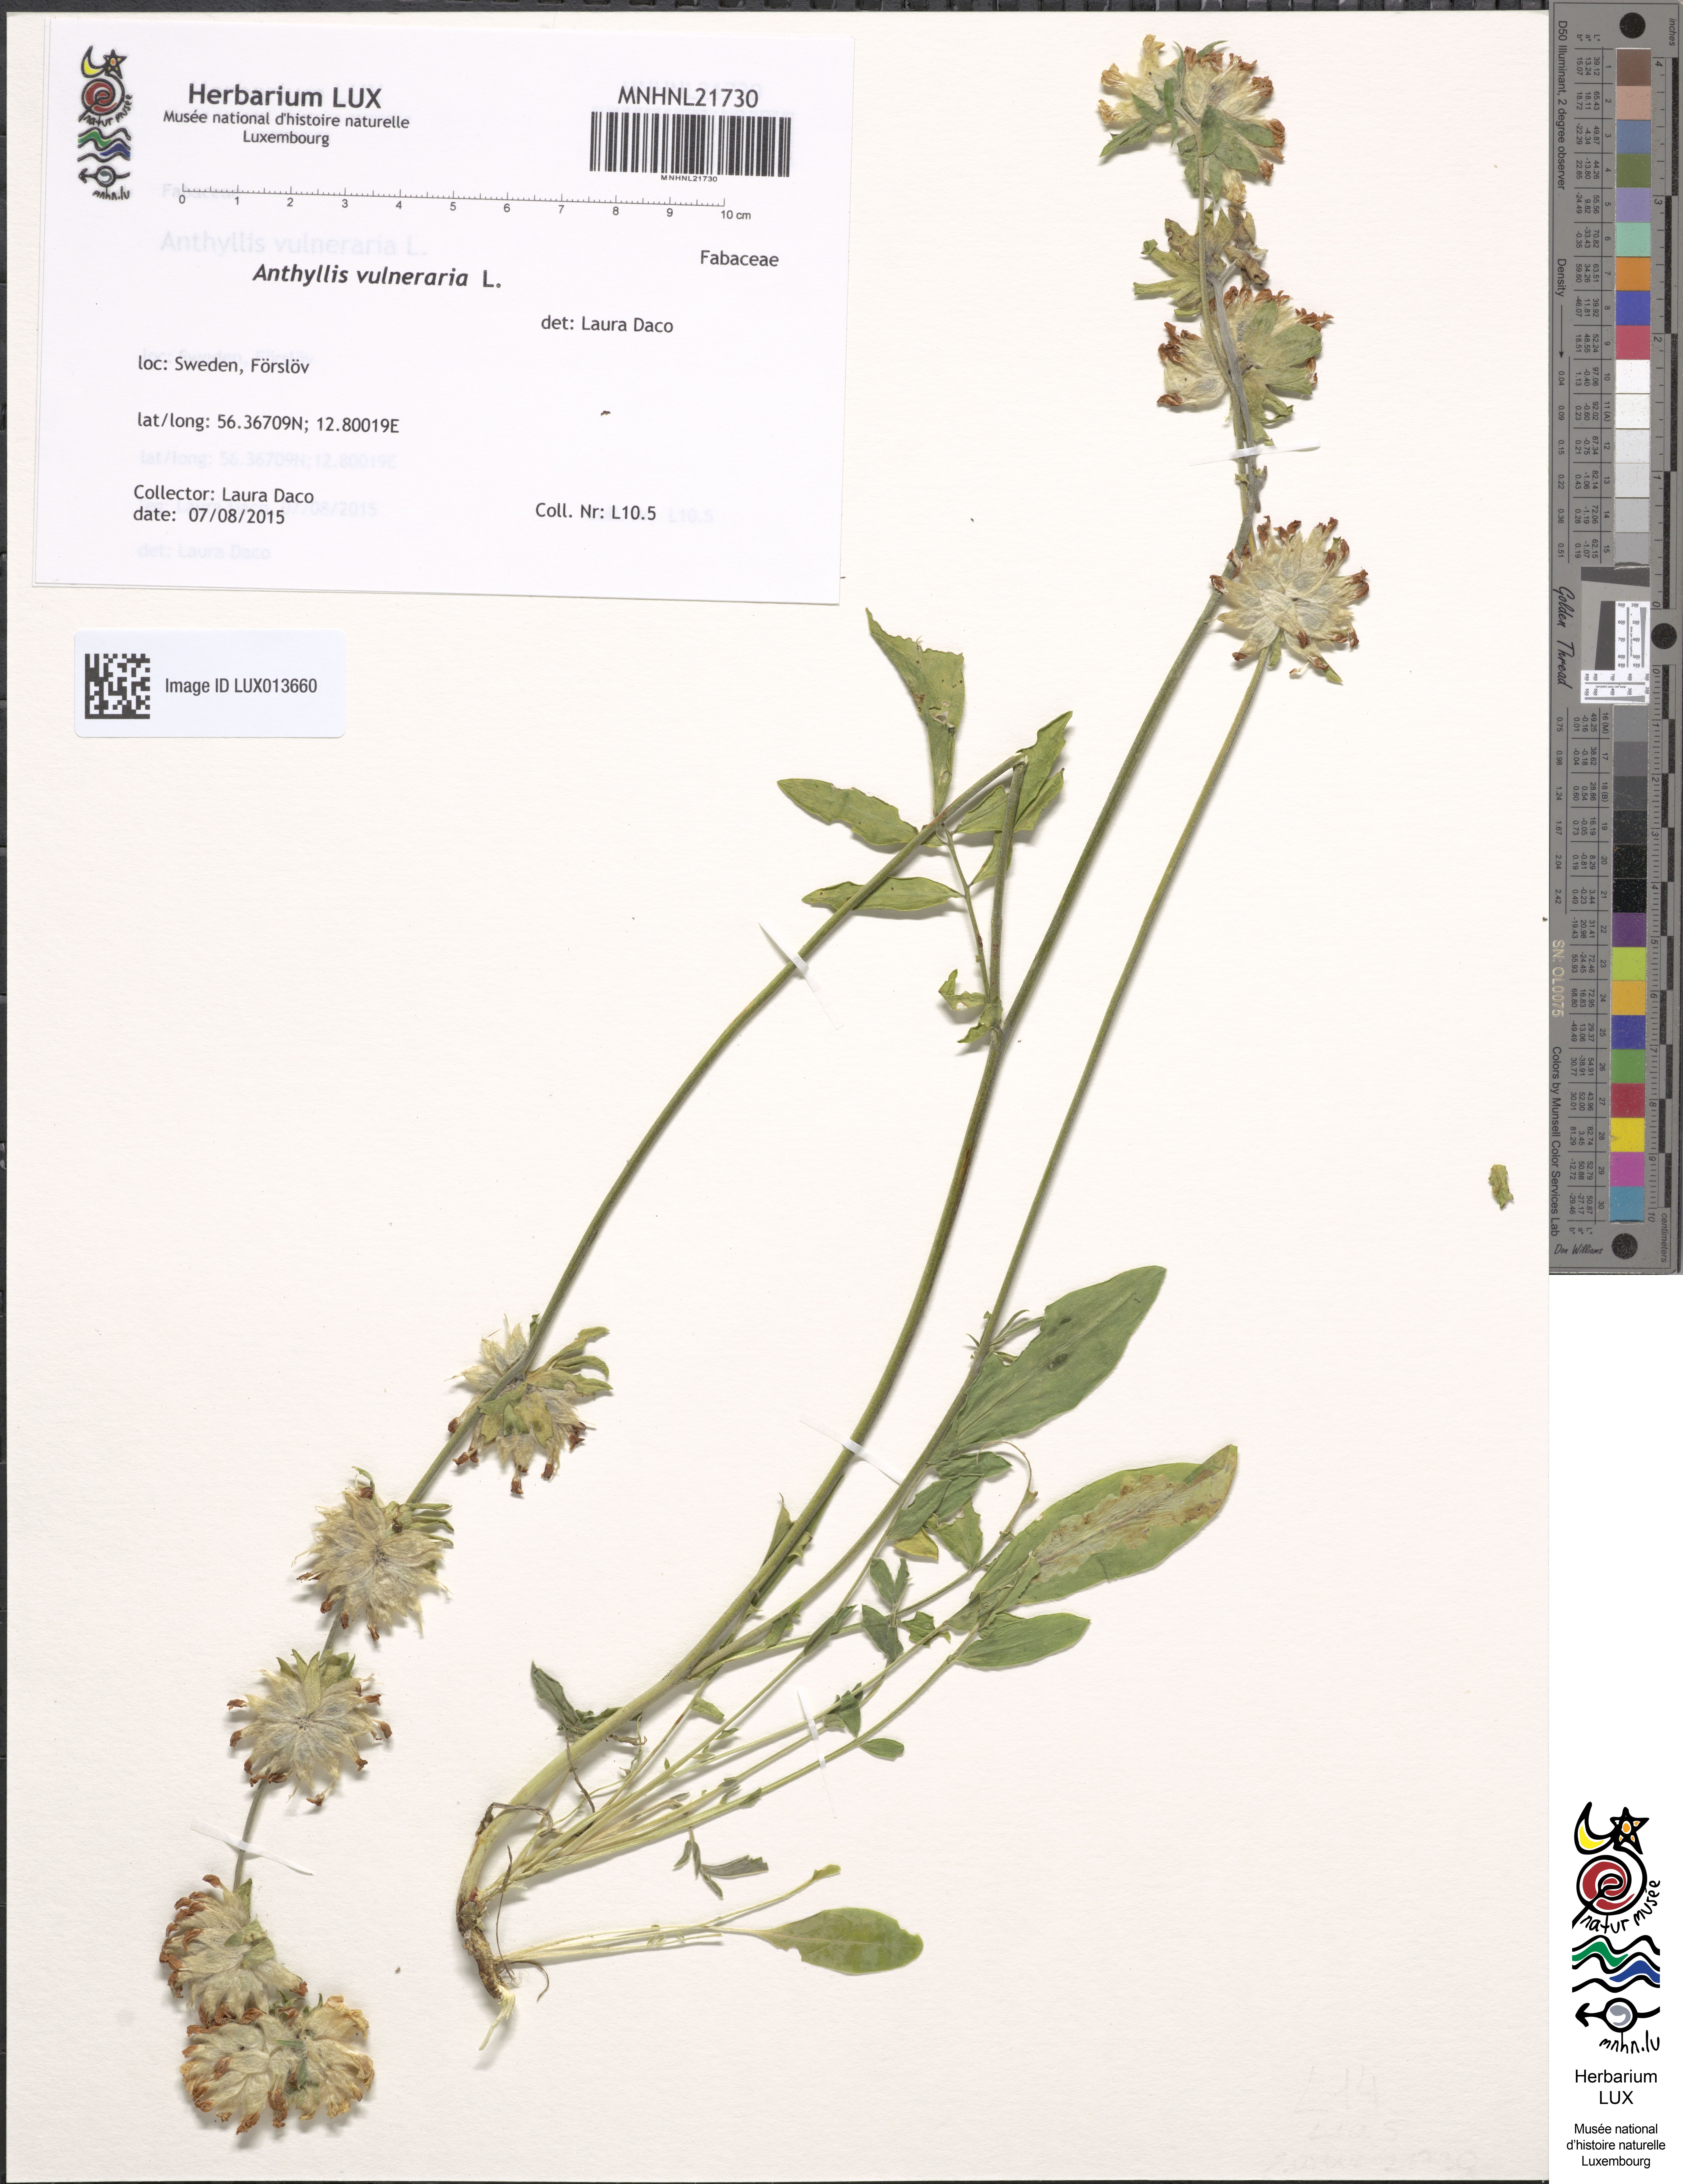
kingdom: Plantae
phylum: Tracheophyta
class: Magnoliopsida
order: Fabales
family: Fabaceae
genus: Anthyllis
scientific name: Anthyllis vulneraria
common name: Kidney vetch
